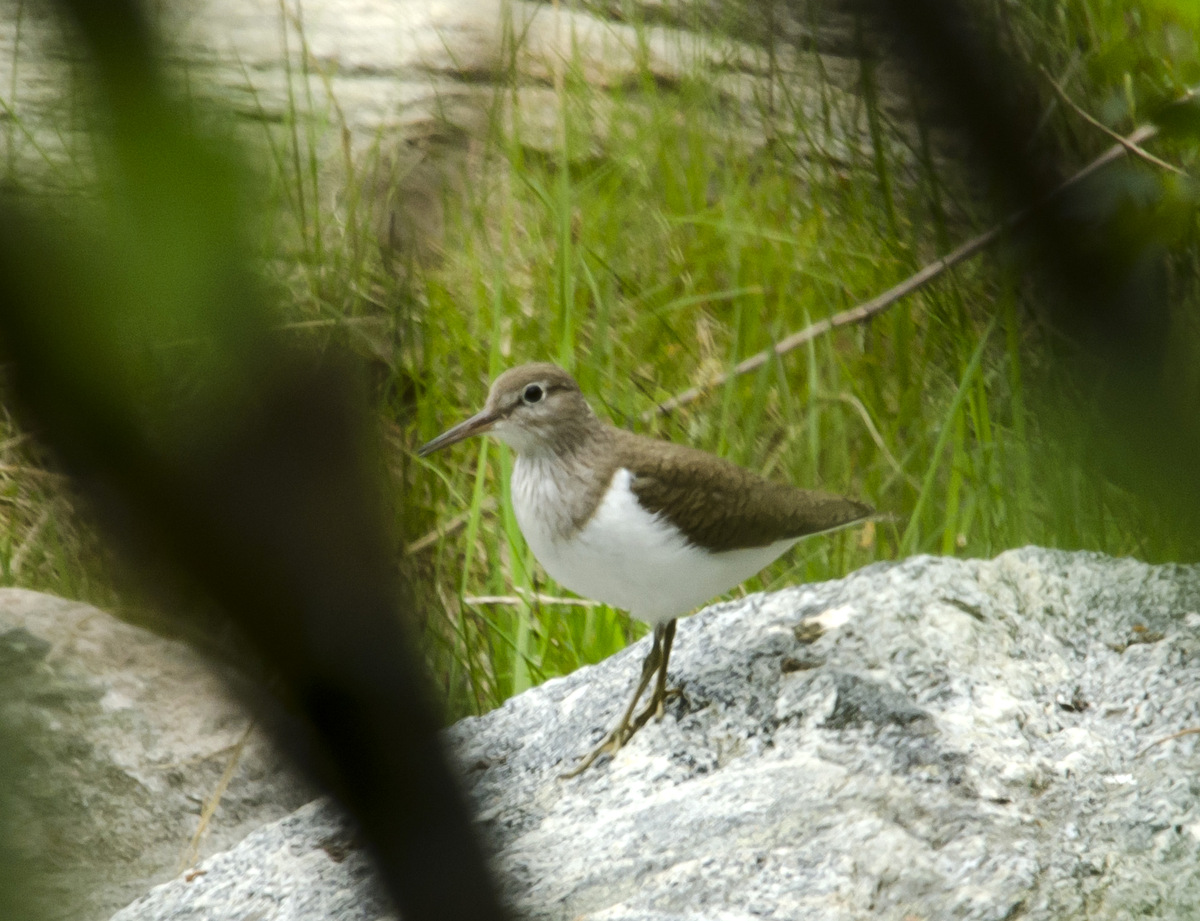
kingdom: Animalia
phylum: Chordata
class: Aves
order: Charadriiformes
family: Scolopacidae
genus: Actitis
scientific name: Actitis hypoleucos
